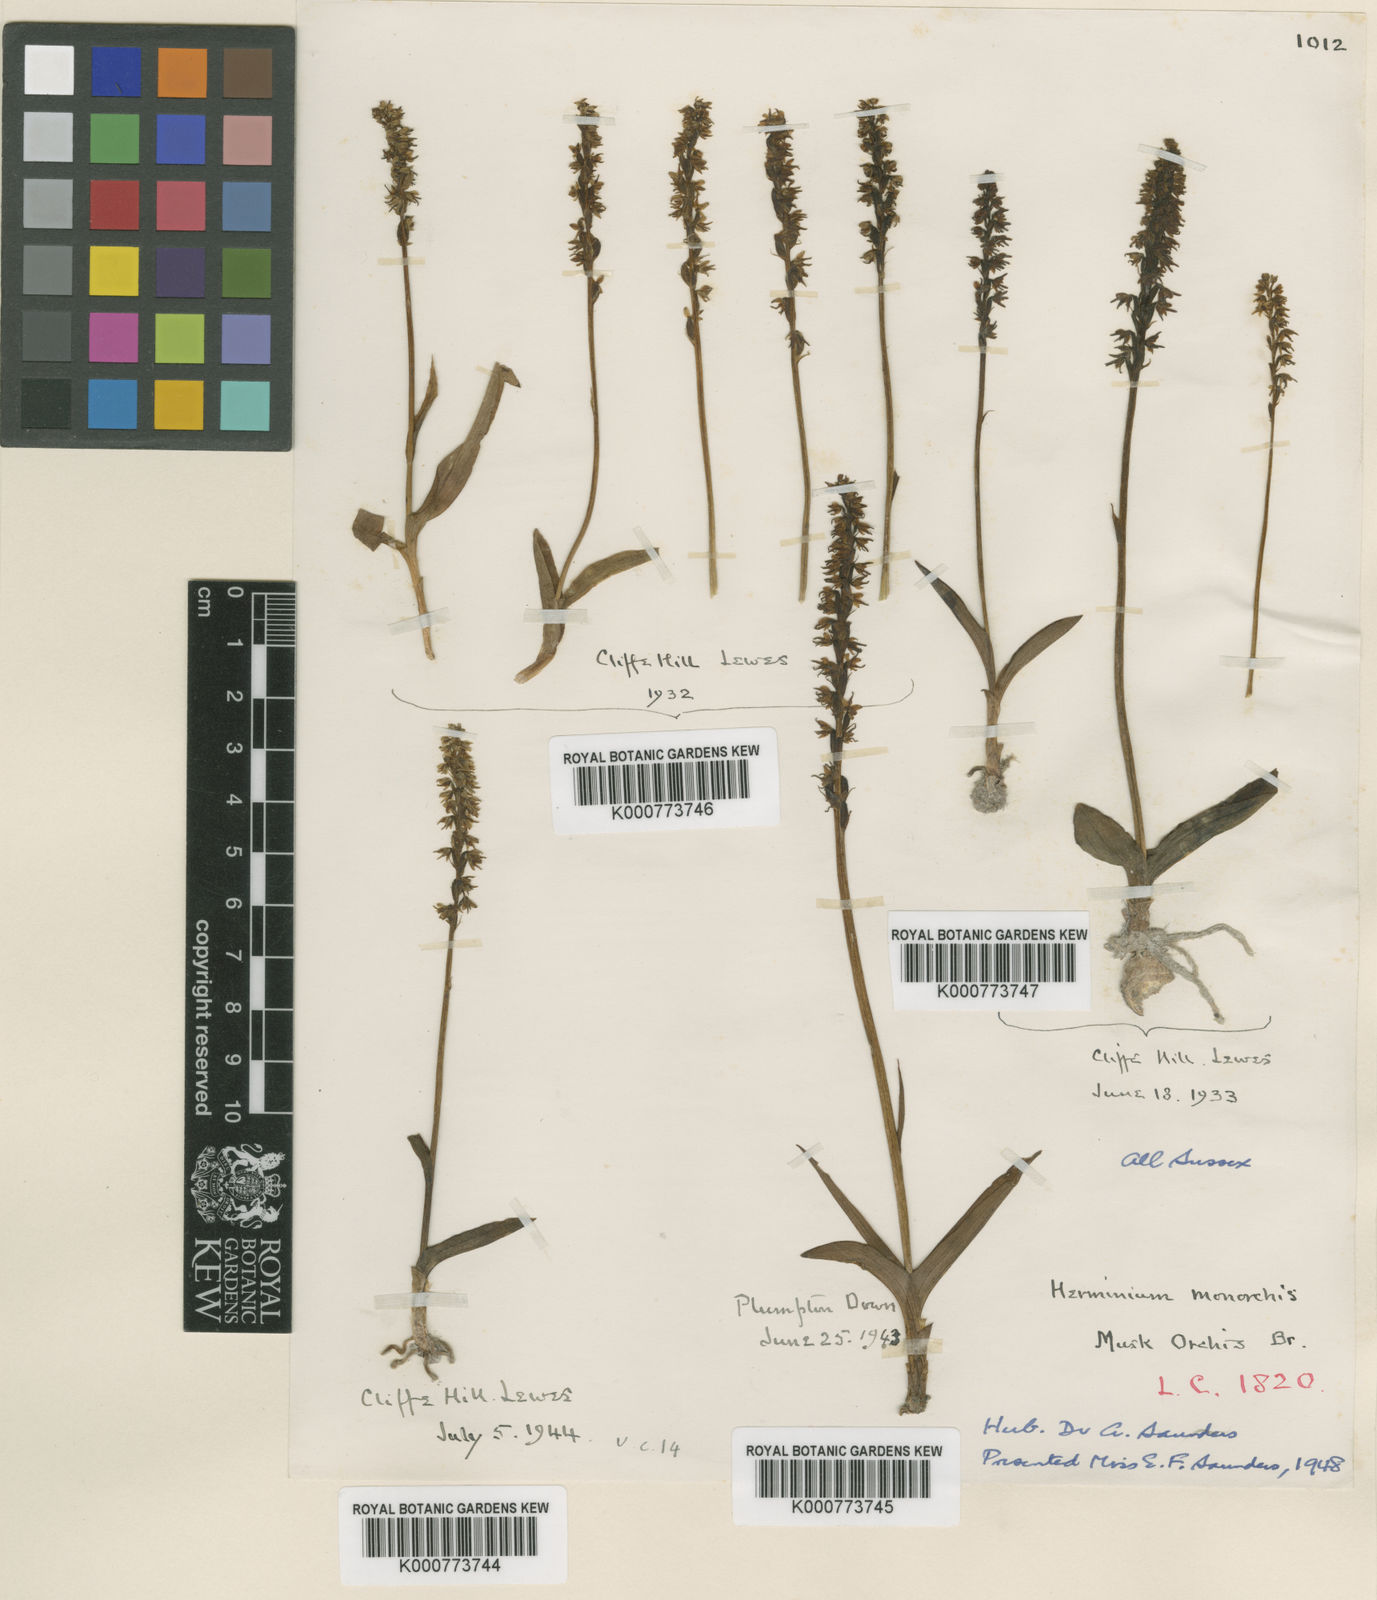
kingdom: Plantae
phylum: Tracheophyta
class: Liliopsida
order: Asparagales
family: Orchidaceae
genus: Herminium
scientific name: Herminium monorchis
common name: Musk orchid
